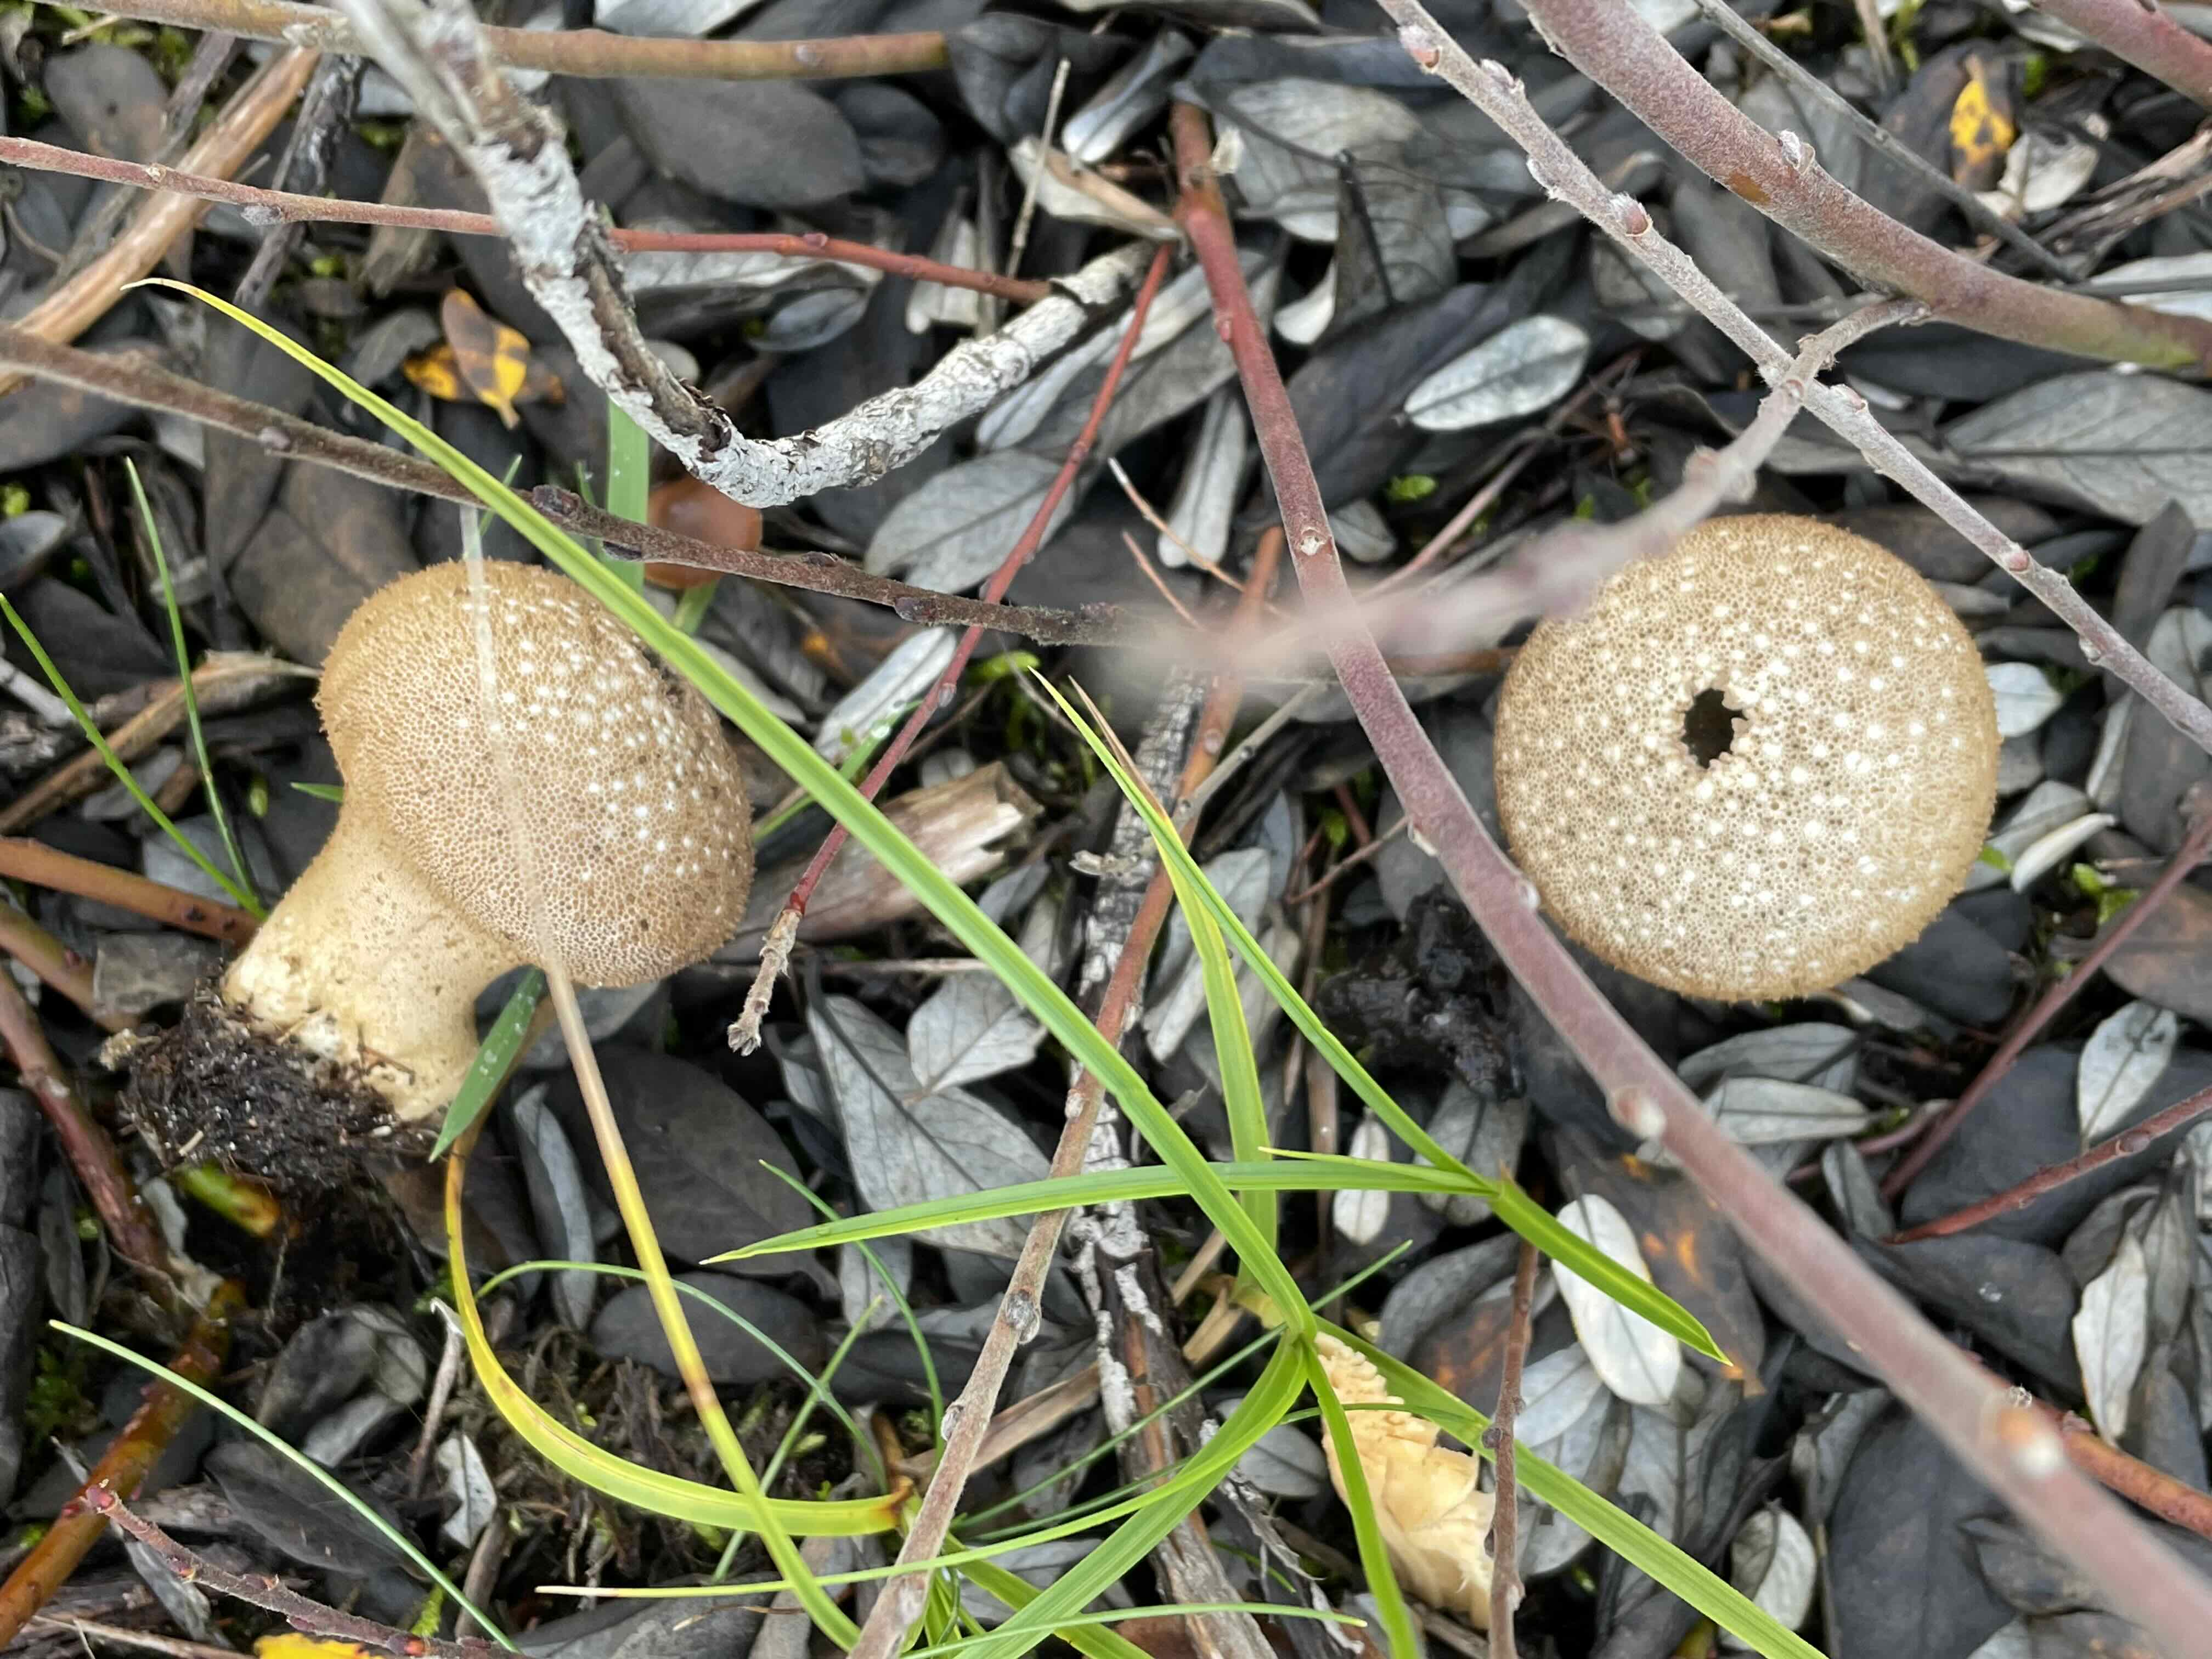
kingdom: Fungi
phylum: Basidiomycota
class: Agaricomycetes
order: Agaricales
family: Lycoperdaceae
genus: Lycoperdon
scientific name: Lycoperdon perlatum
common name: krystal-støvbold
